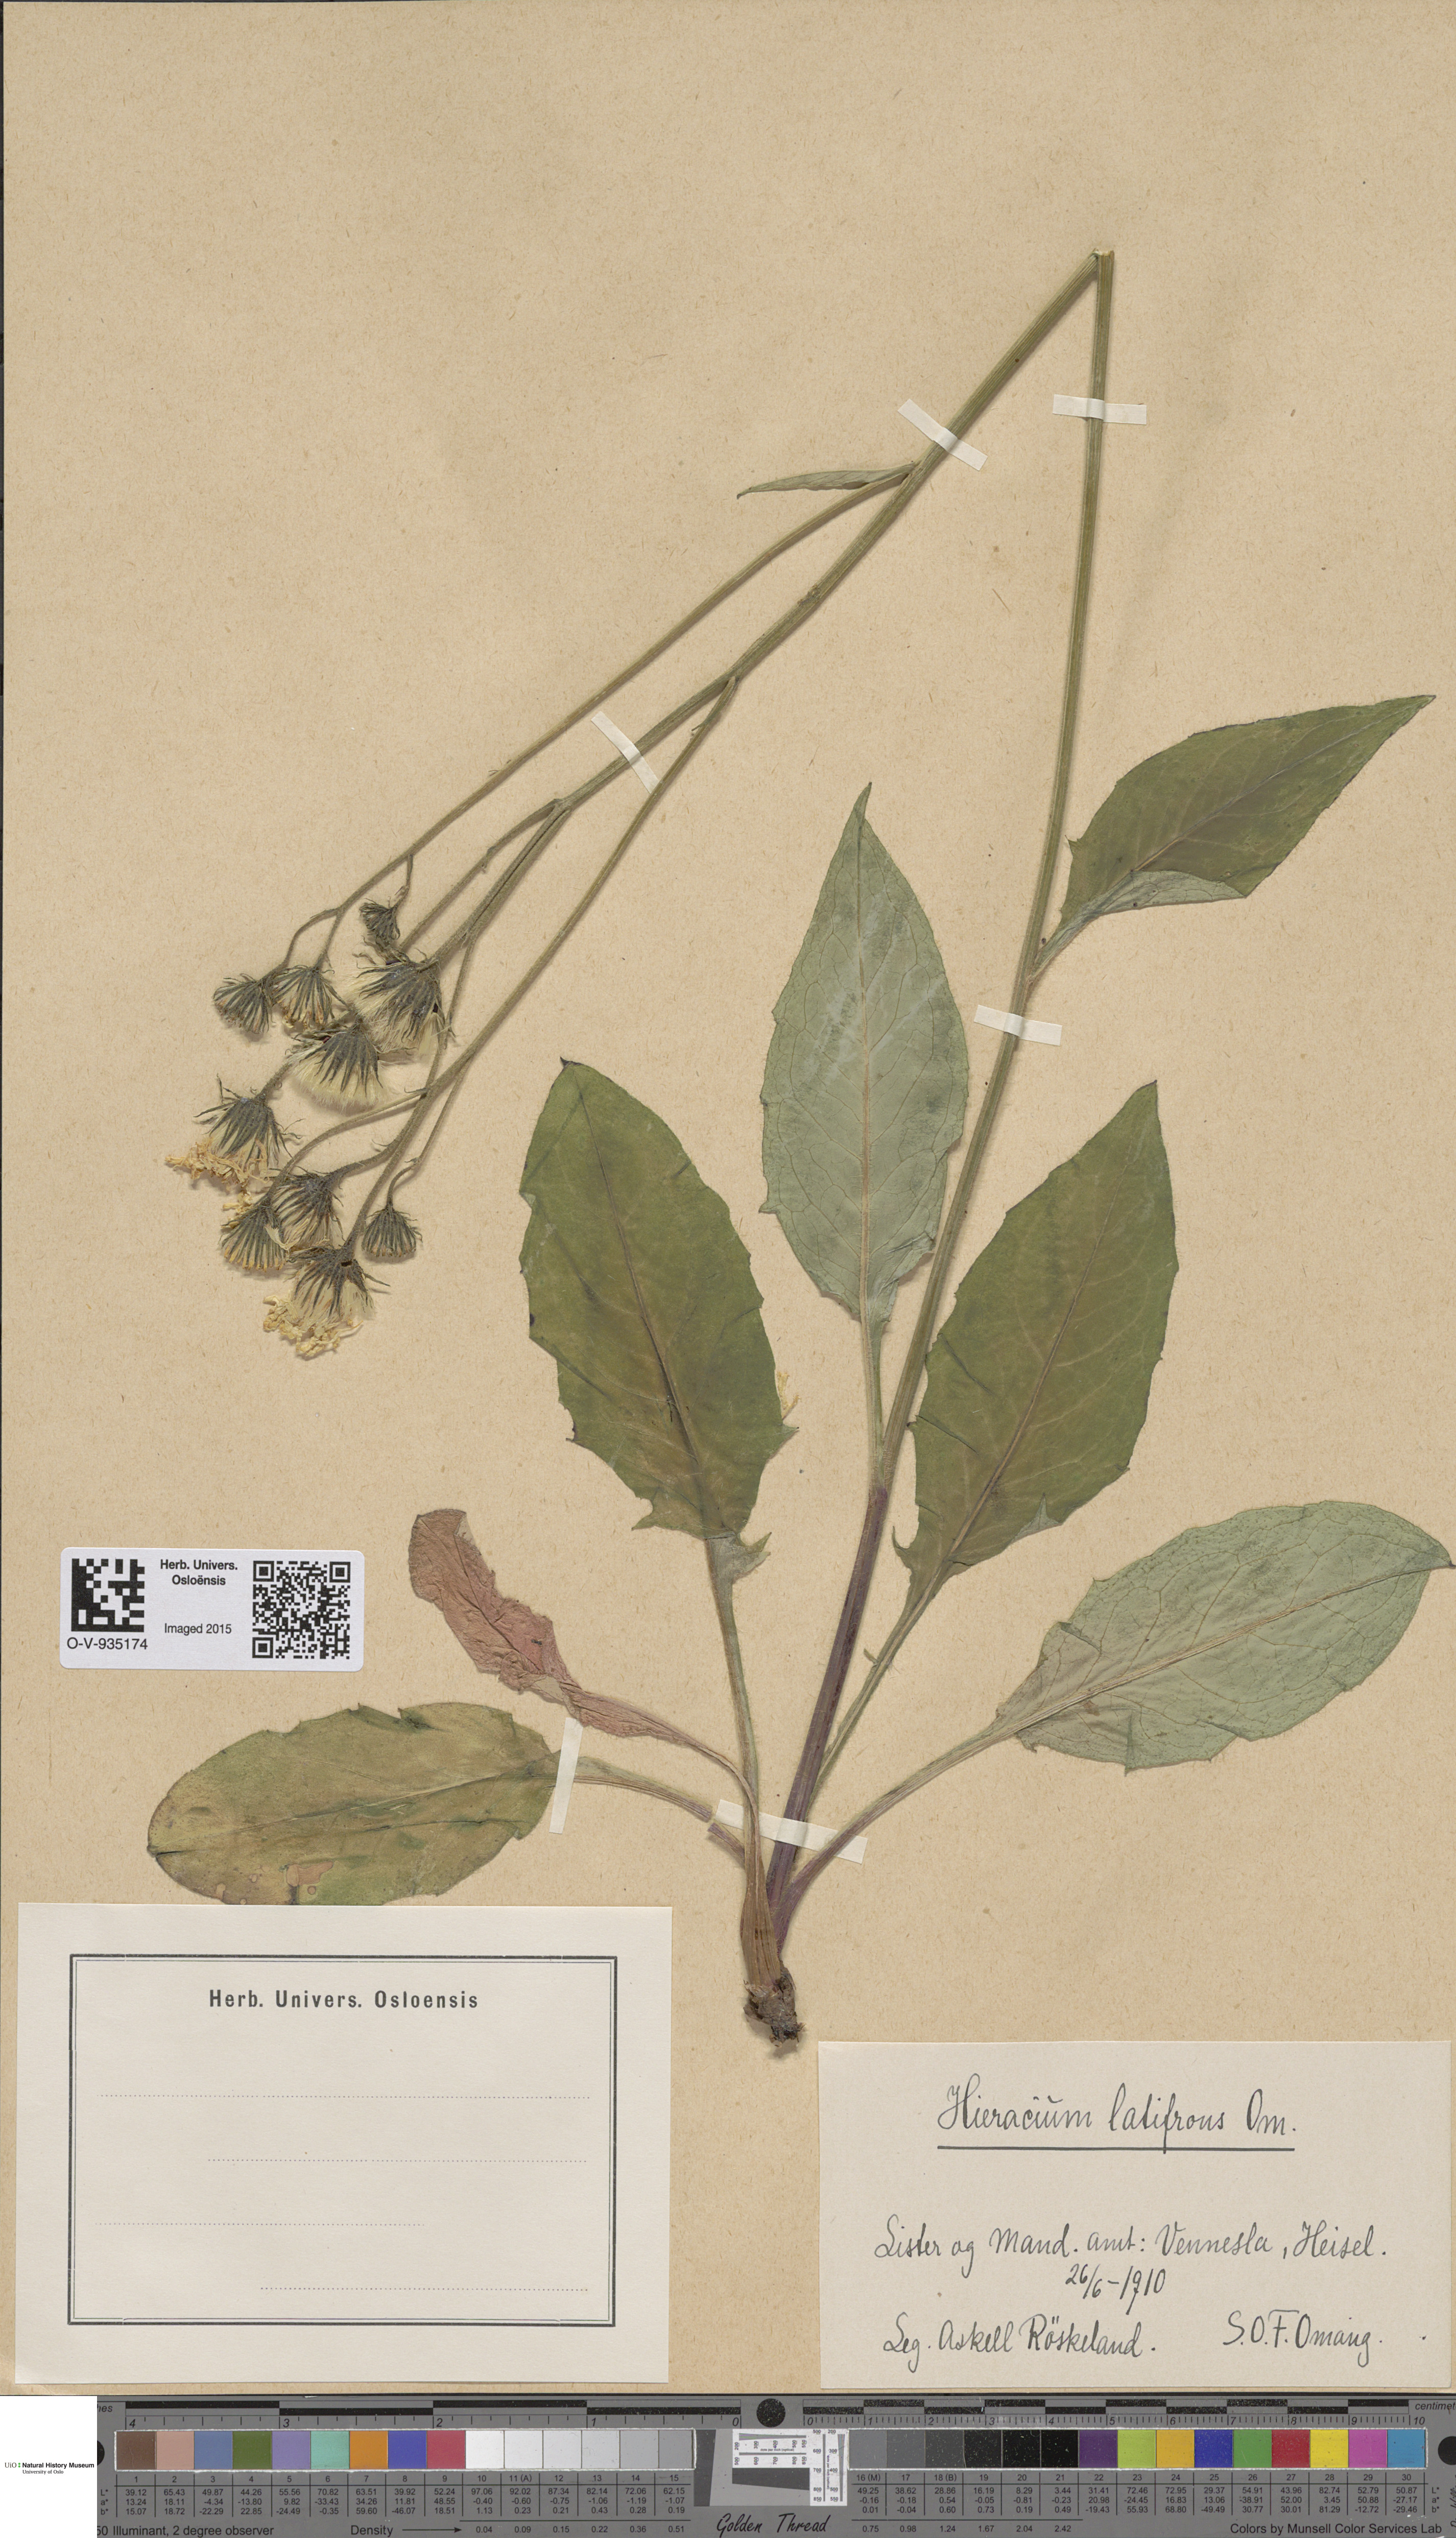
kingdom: Plantae
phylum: Tracheophyta
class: Magnoliopsida
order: Asterales
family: Asteraceae
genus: Hieracium
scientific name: Hieracium saxifragum
